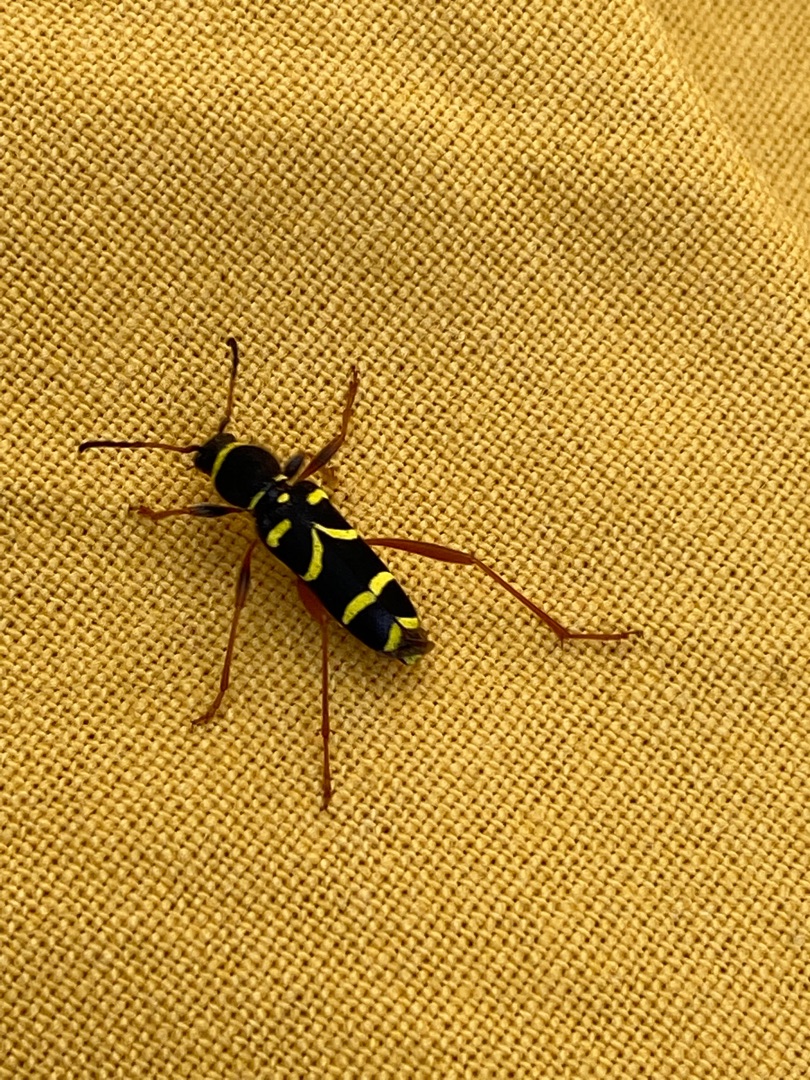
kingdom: Animalia
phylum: Arthropoda
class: Insecta
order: Coleoptera
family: Cerambycidae
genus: Clytus
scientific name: Clytus arietis
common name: Lille hvepsebuk
